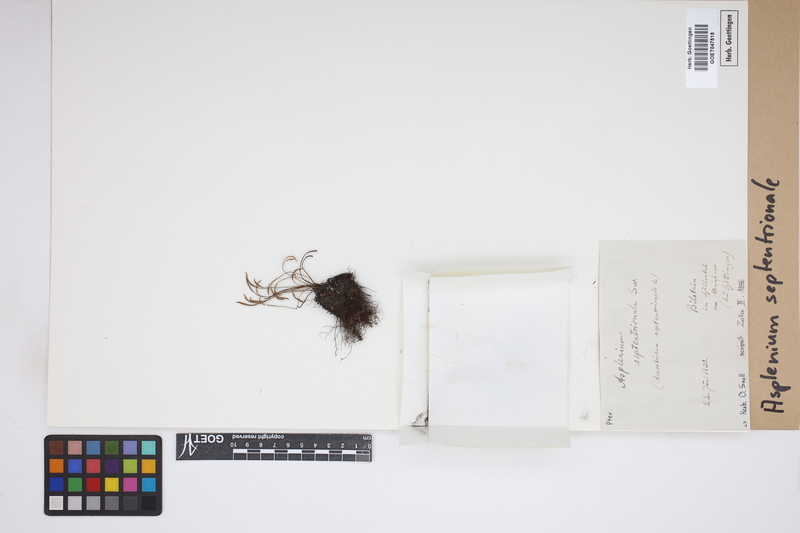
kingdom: Plantae
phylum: Tracheophyta
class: Polypodiopsida
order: Polypodiales
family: Aspleniaceae
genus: Asplenium
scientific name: Asplenium septentrionale
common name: Forked spleenwort
